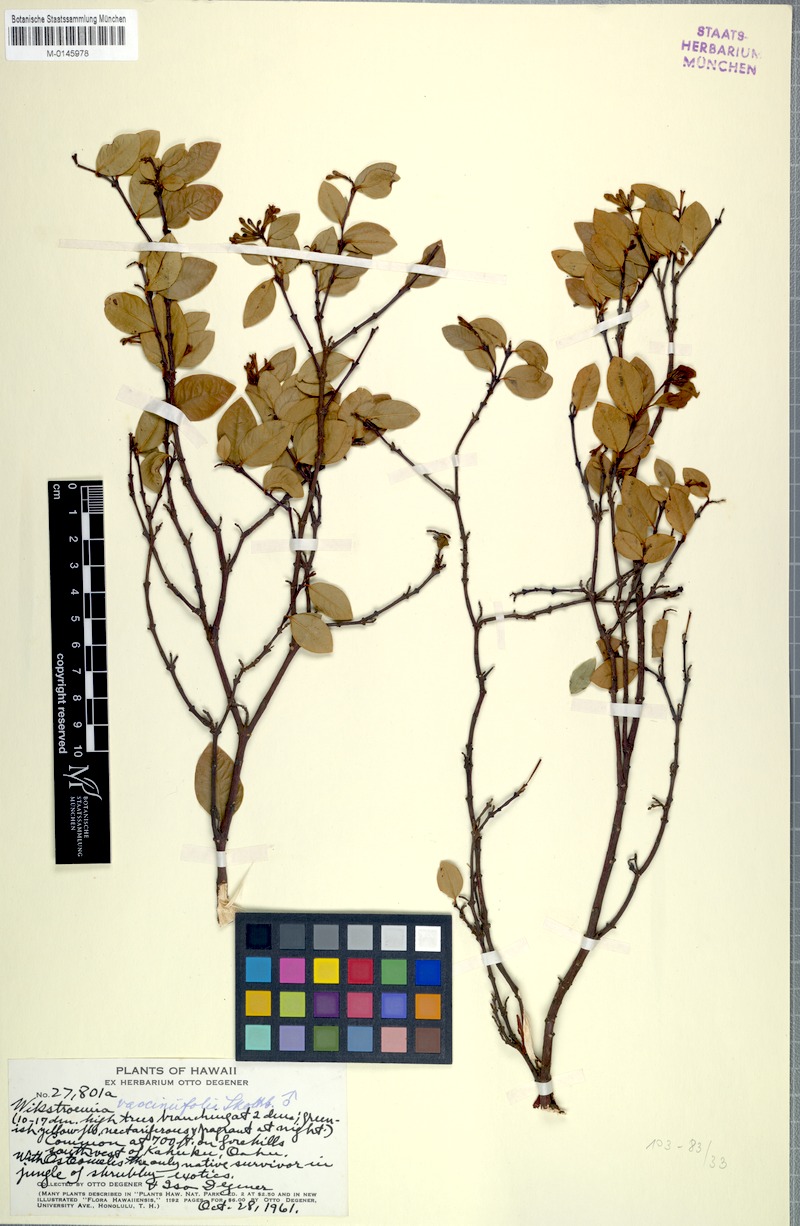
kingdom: Plantae
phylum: Tracheophyta
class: Magnoliopsida
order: Malvales
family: Thymelaeaceae
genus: Wikstroemia
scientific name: Wikstroemia oahuensis
